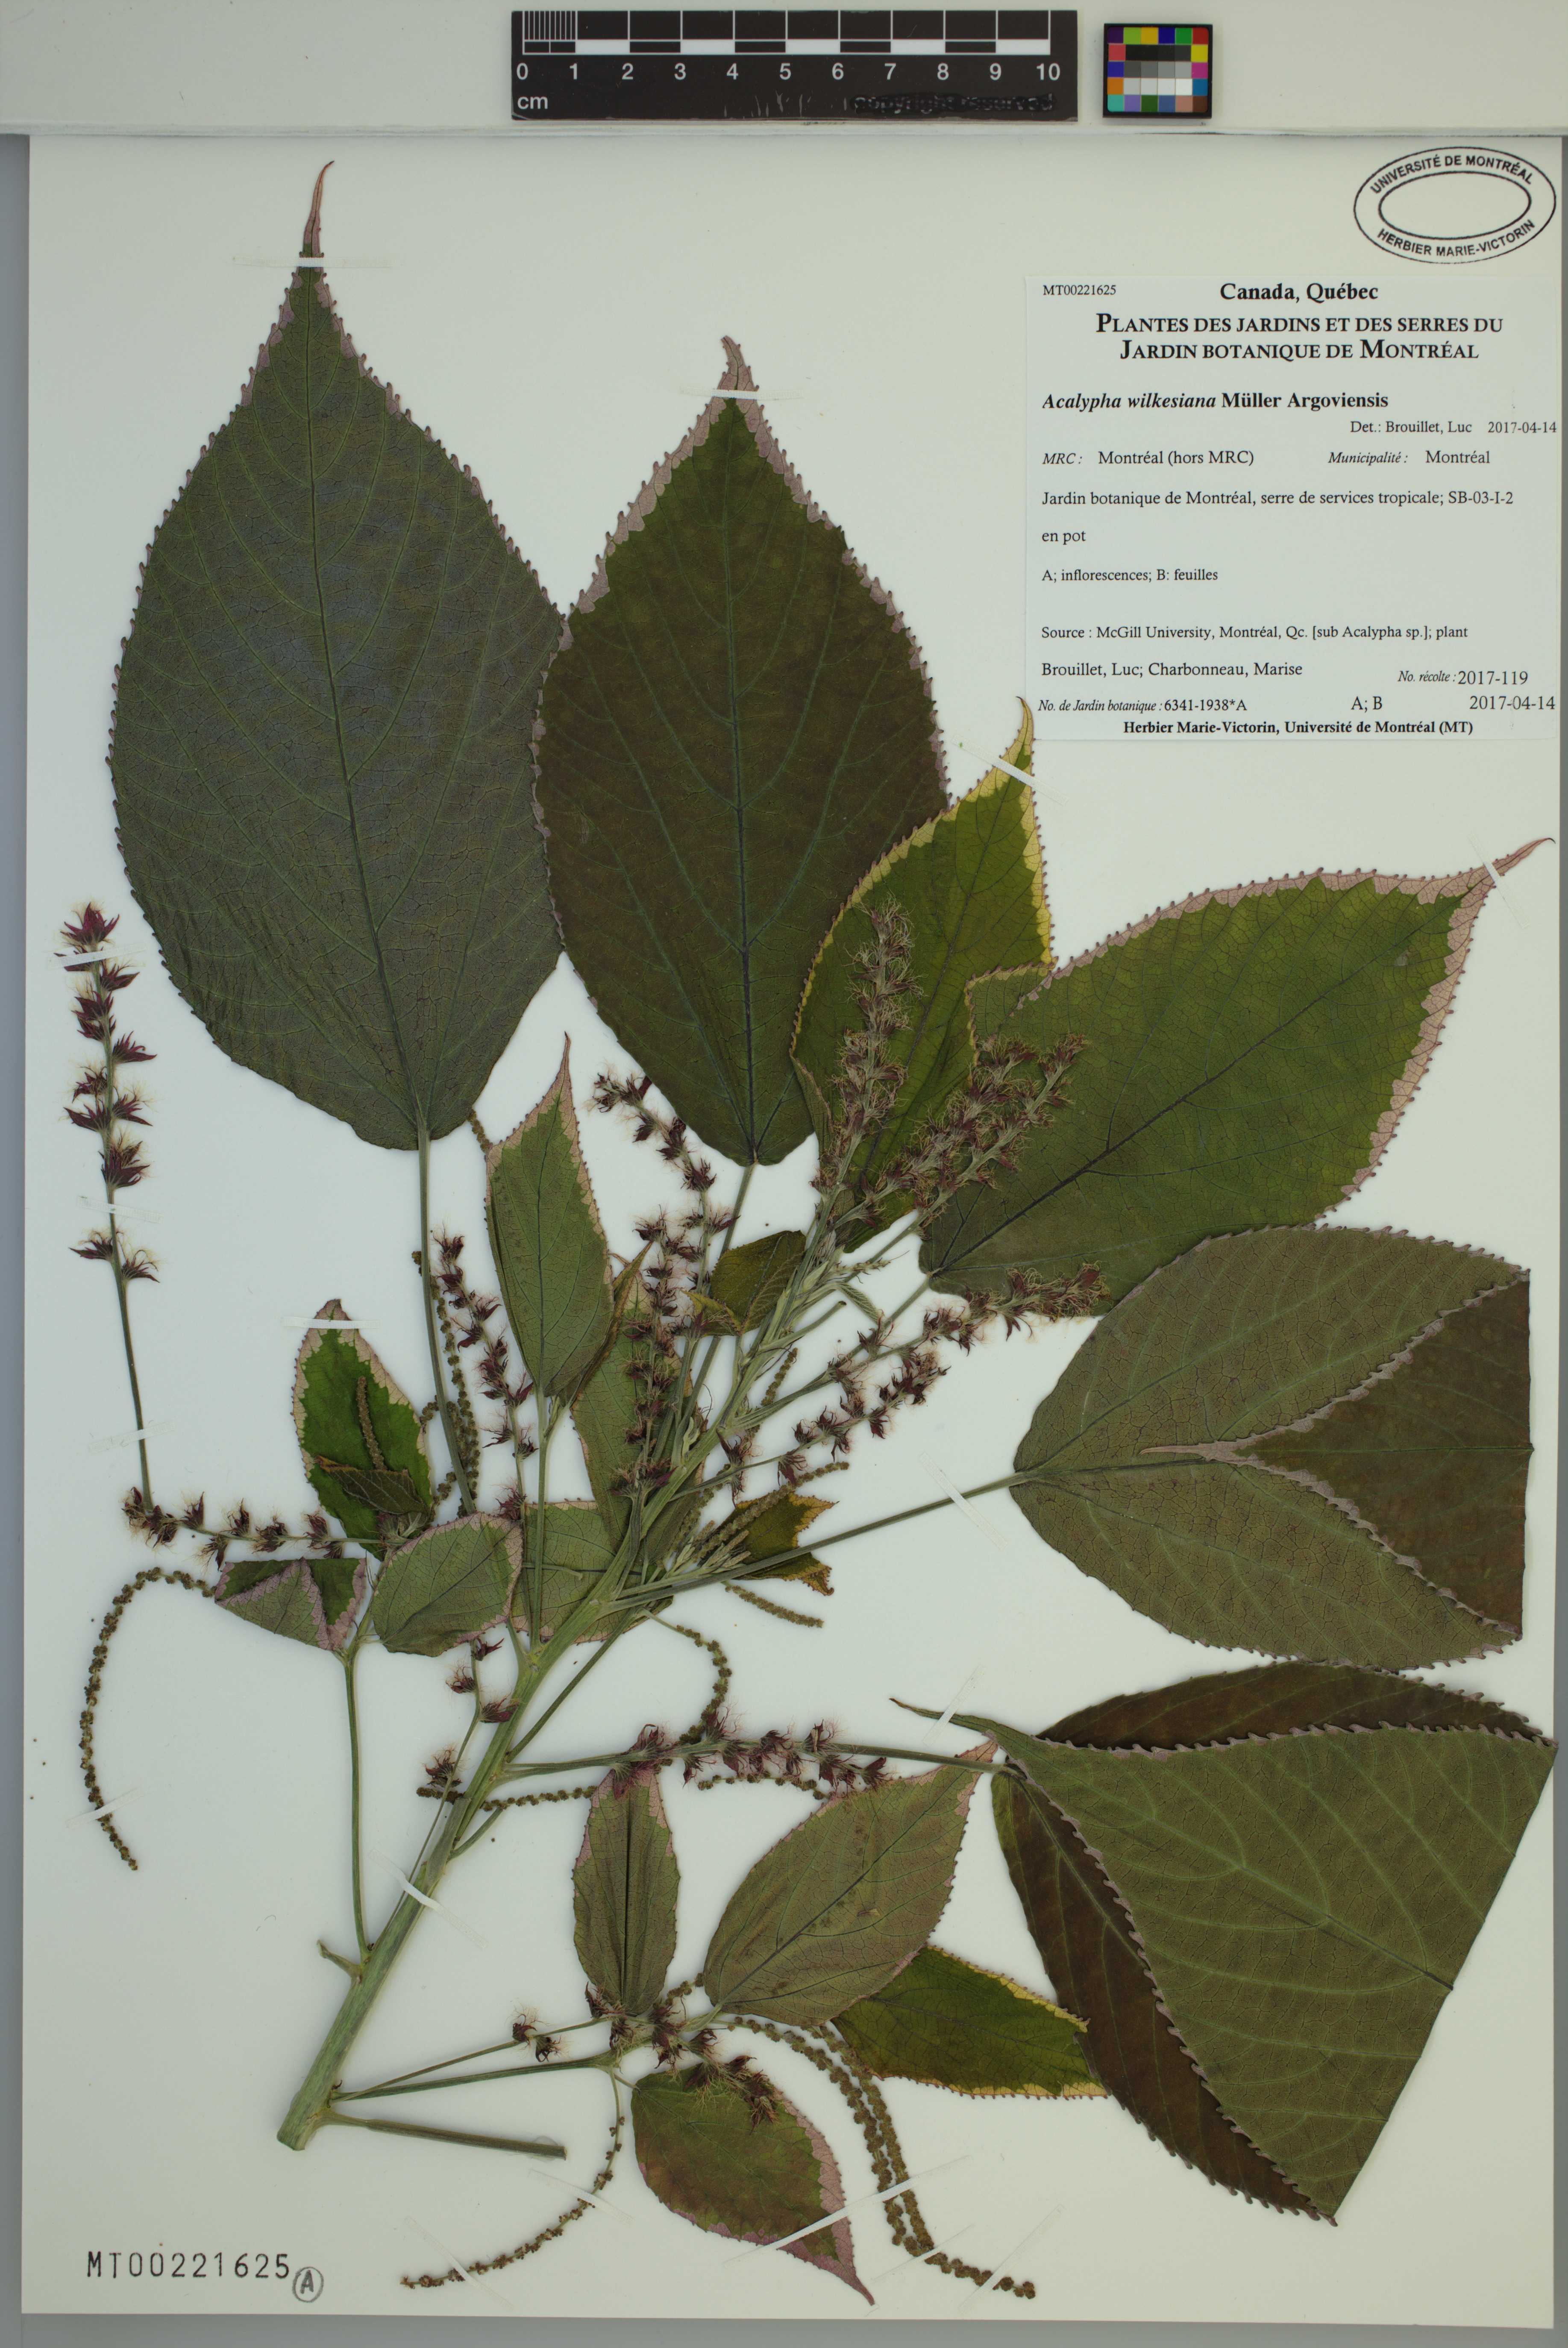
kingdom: Plantae
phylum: Tracheophyta
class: Magnoliopsida
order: Malpighiales
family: Euphorbiaceae
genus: Acalypha
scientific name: Acalypha wilkesiana
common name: Jacob's coat
